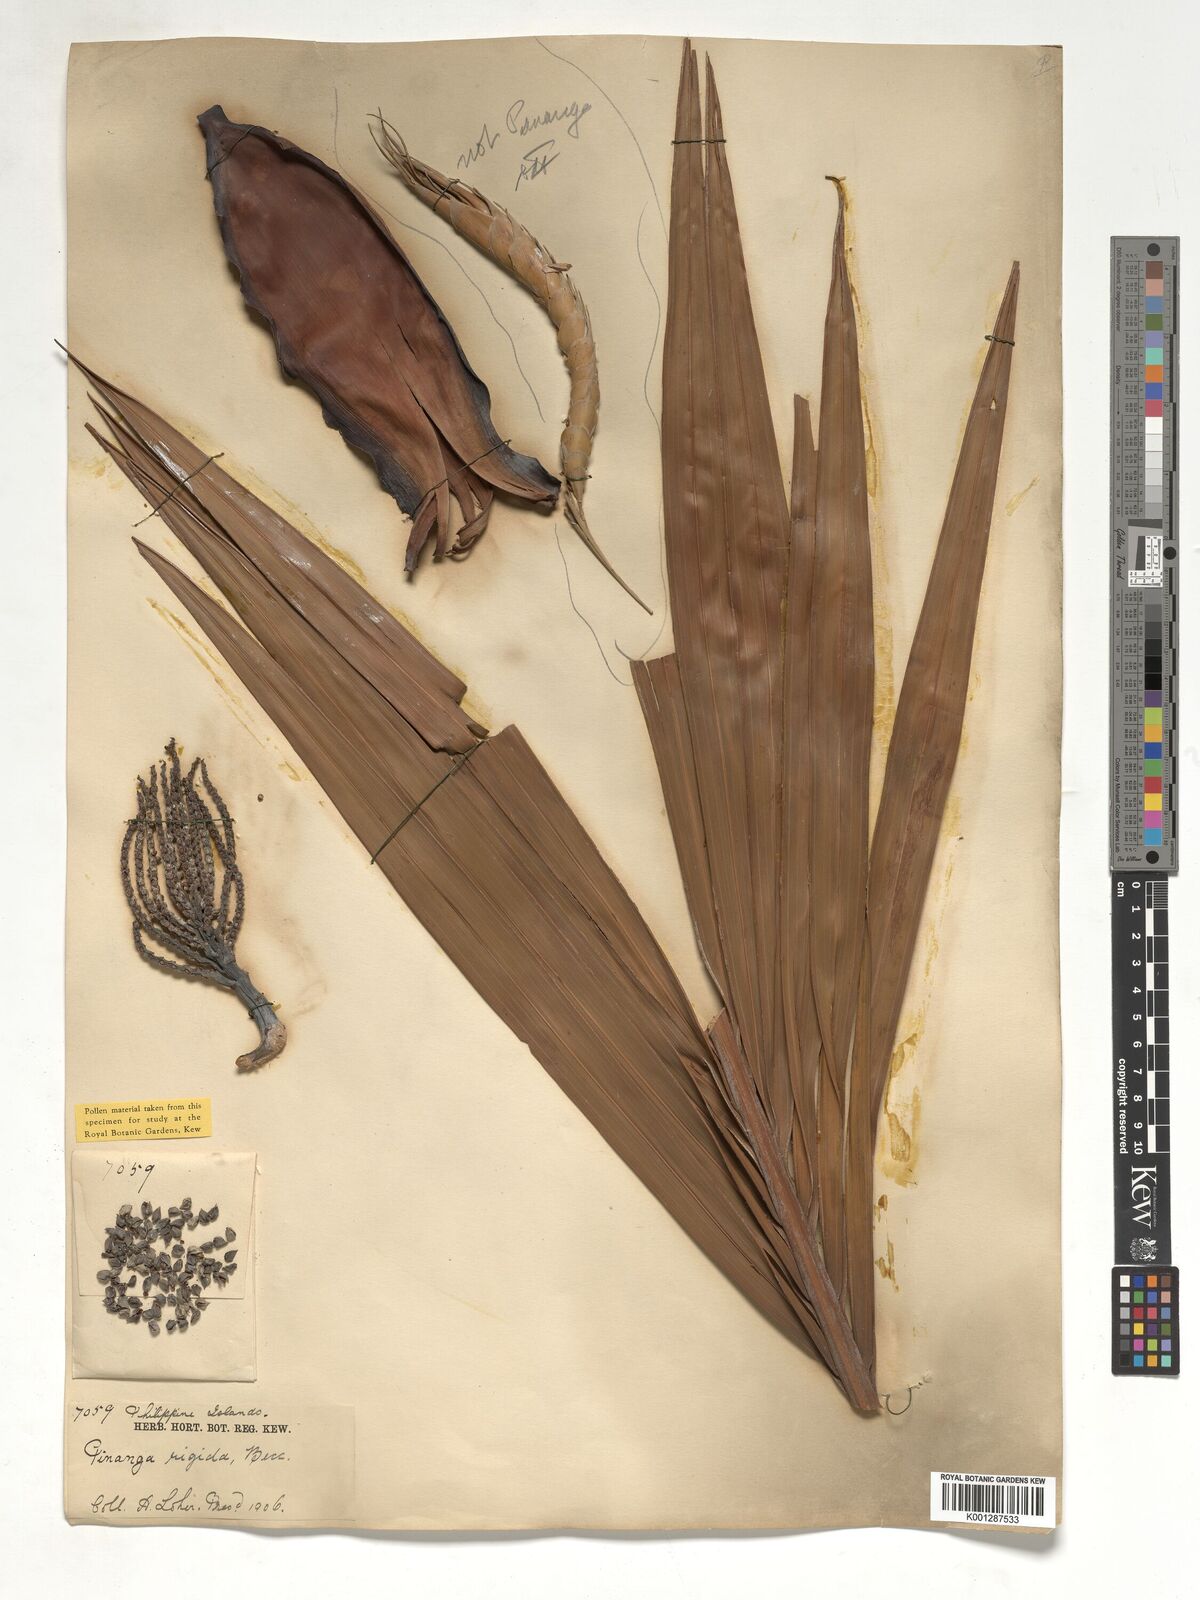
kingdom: Plantae
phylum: Tracheophyta
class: Liliopsida
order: Arecales
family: Arecaceae
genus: Pinanga
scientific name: Pinanga rigida
